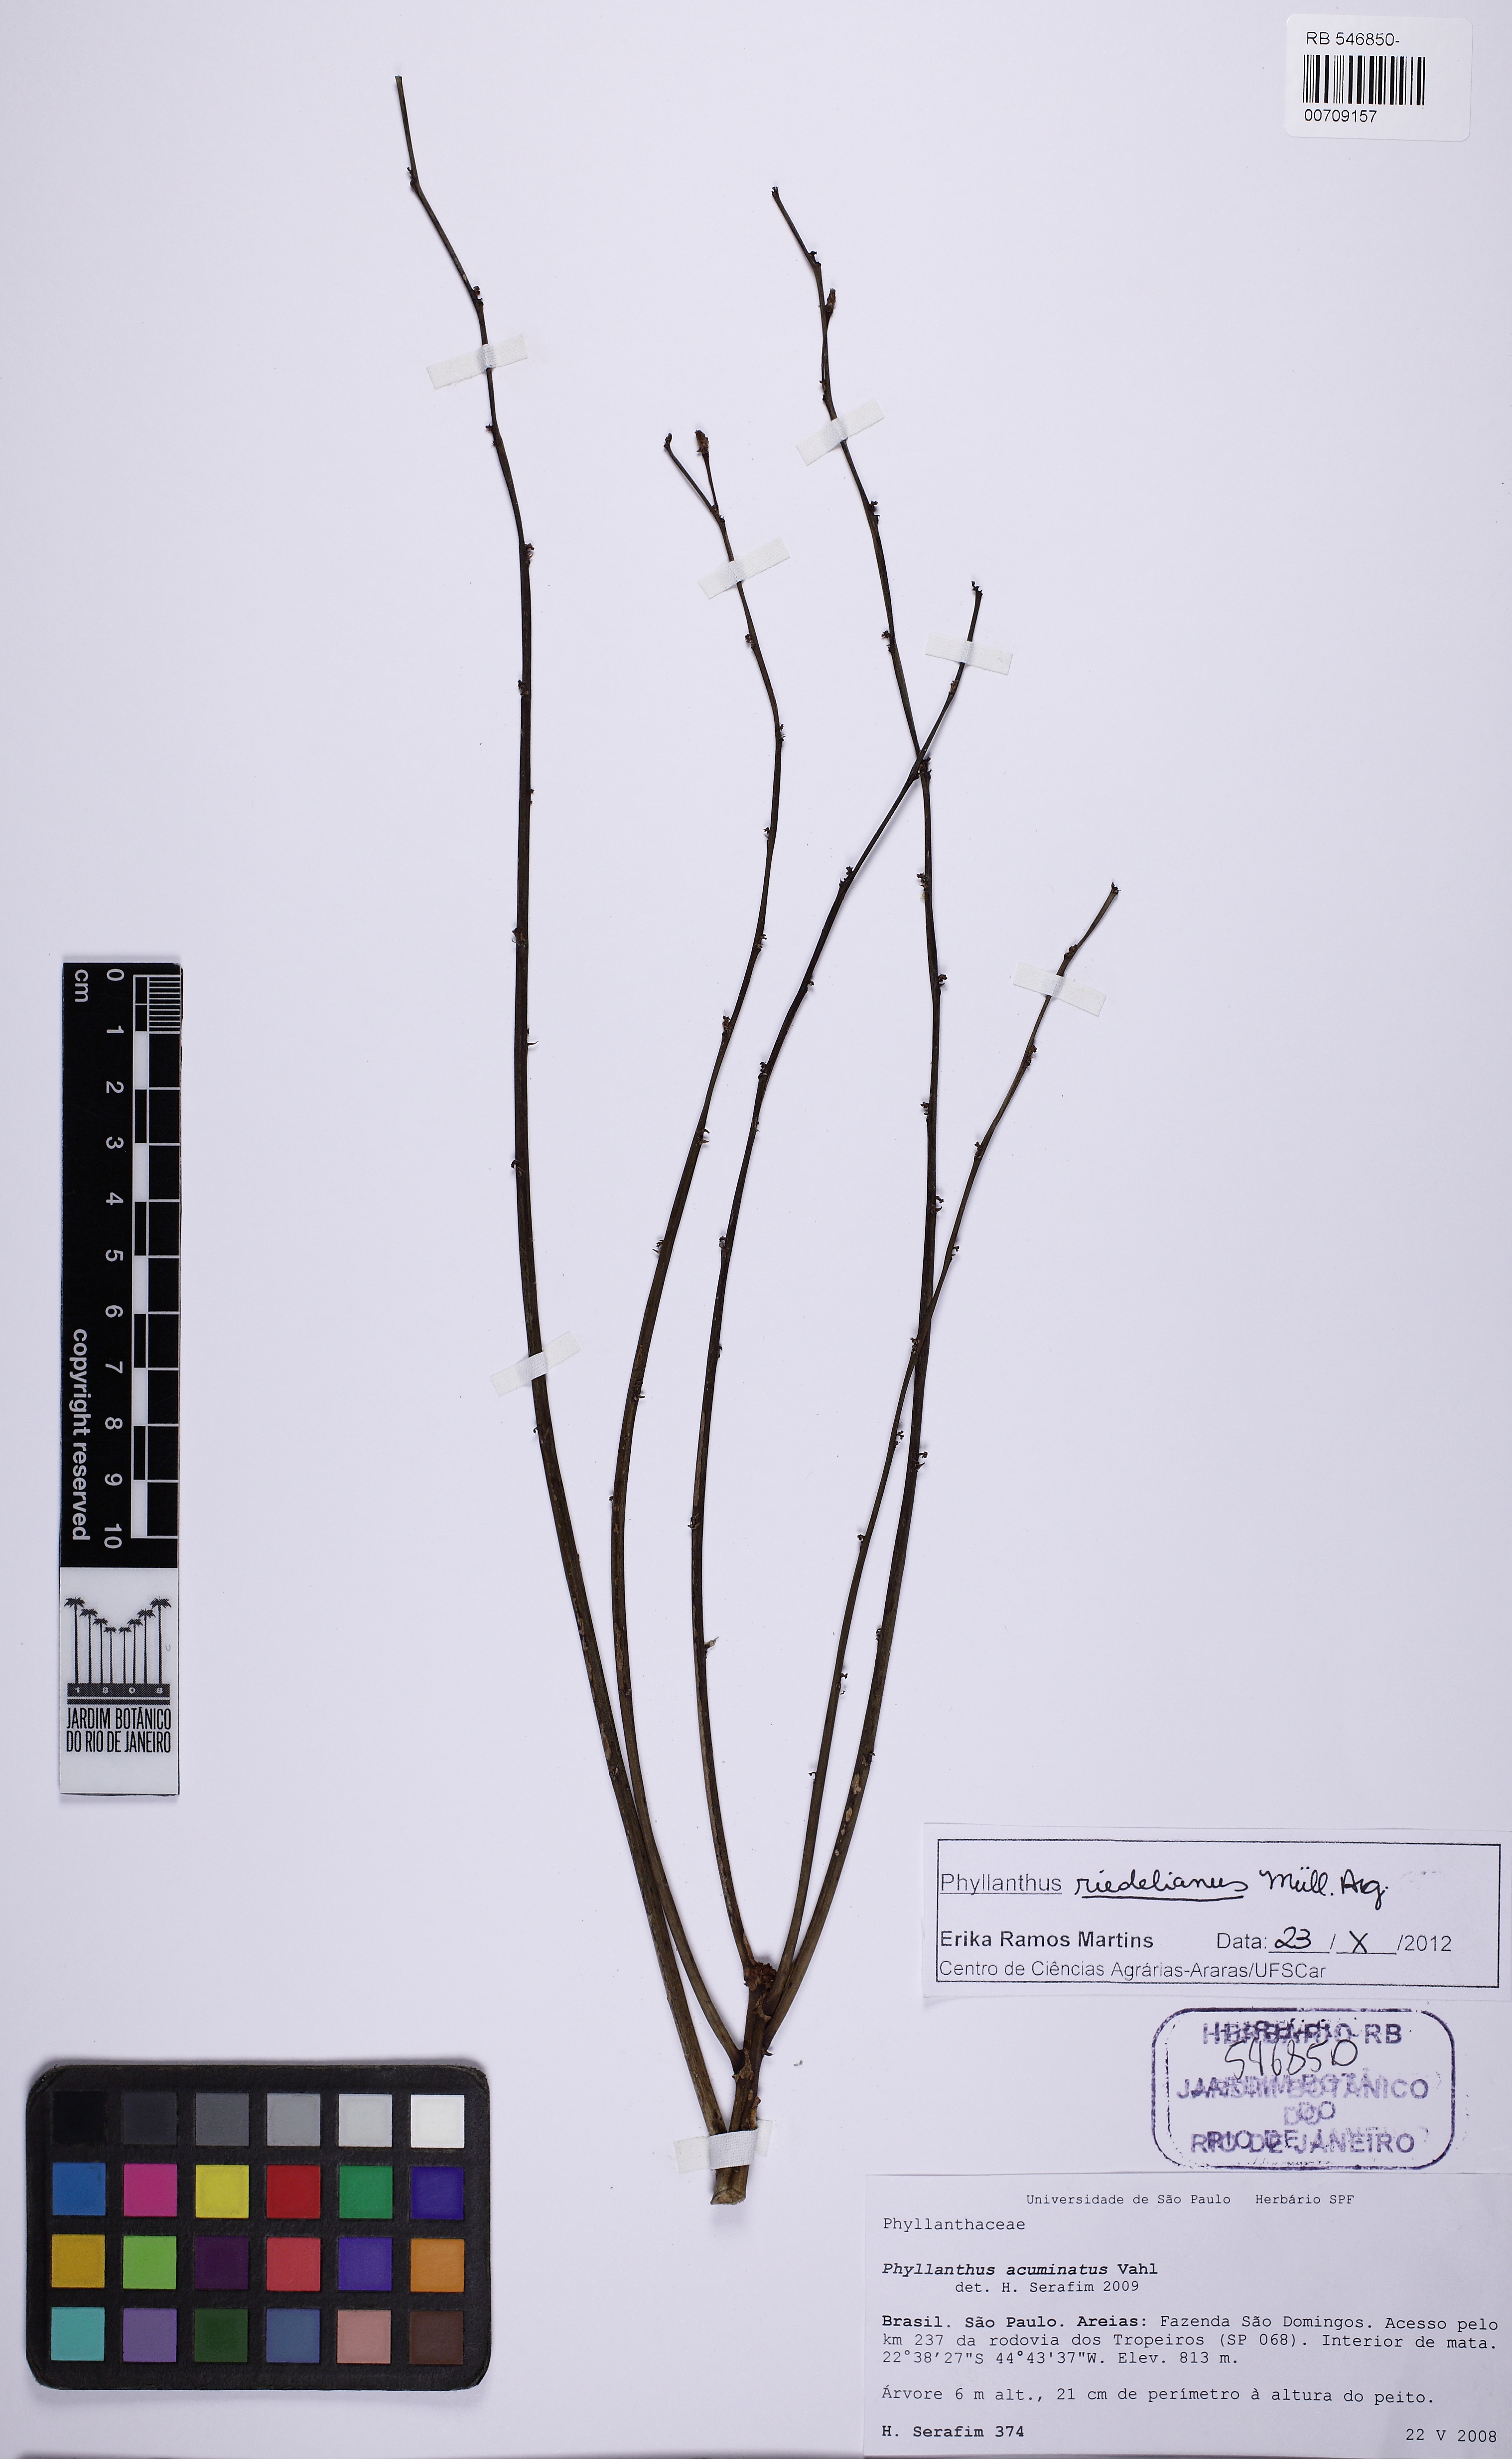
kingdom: Plantae
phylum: Tracheophyta
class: Magnoliopsida
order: Malpighiales
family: Phyllanthaceae
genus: Phyllanthus
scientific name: Phyllanthus riedelianus
